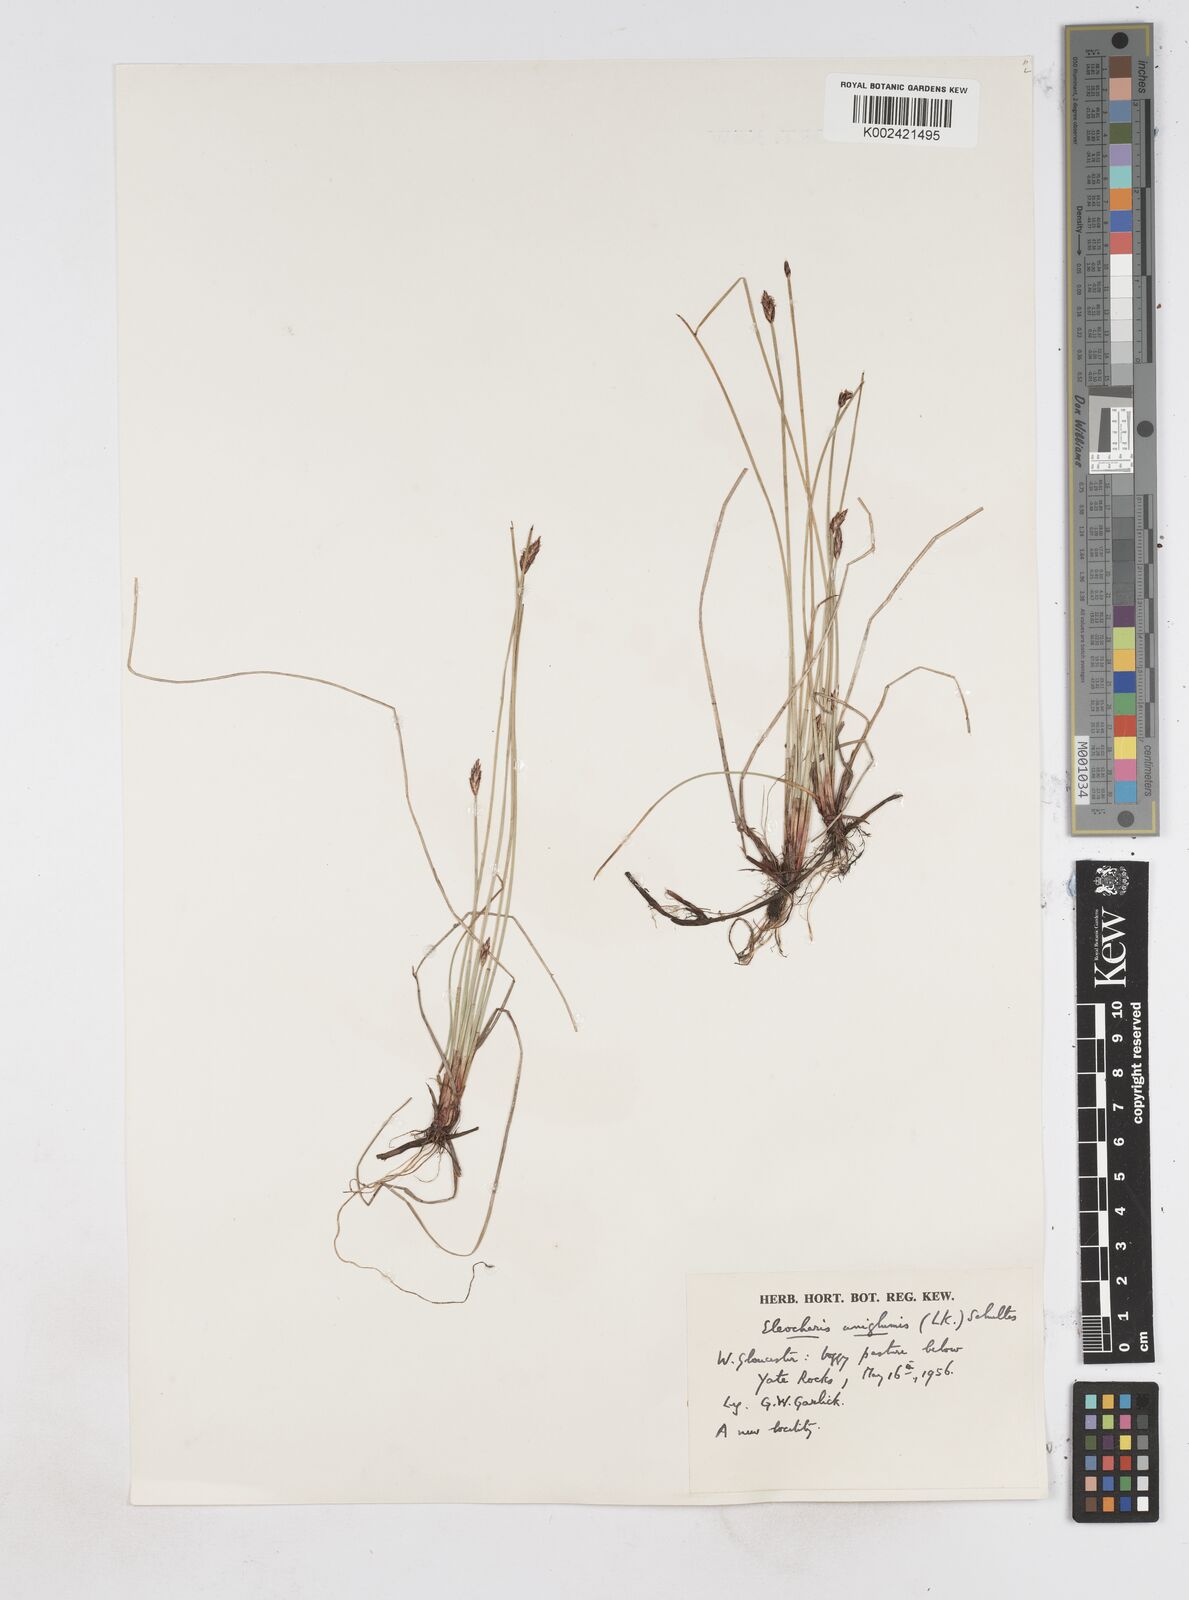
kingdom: Plantae
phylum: Tracheophyta
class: Liliopsida
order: Poales
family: Cyperaceae
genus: Eleocharis
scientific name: Eleocharis uniglumis
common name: Slender spike-rush
